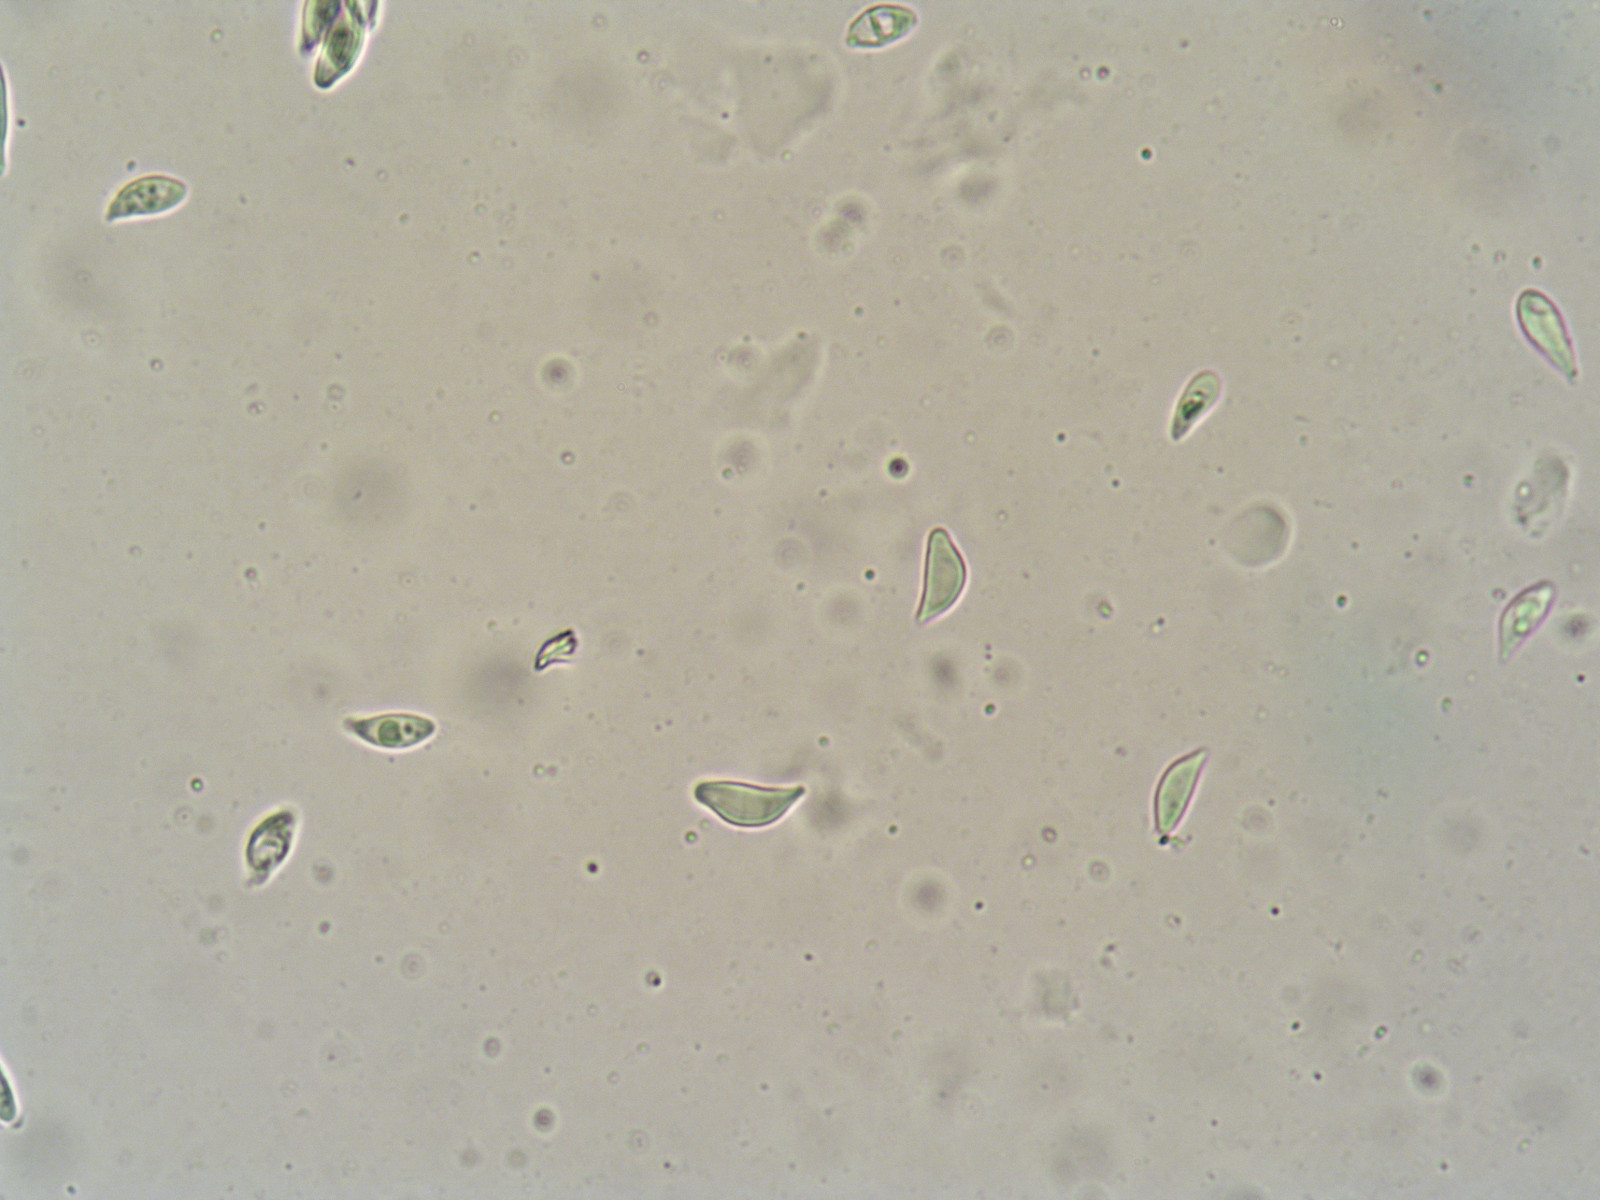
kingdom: Fungi
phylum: Basidiomycota
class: Agaricomycetes
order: Agaricales
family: Mycenaceae
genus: Hemimycena
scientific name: Hemimycena cucullata
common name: tætbladet huesvamp
